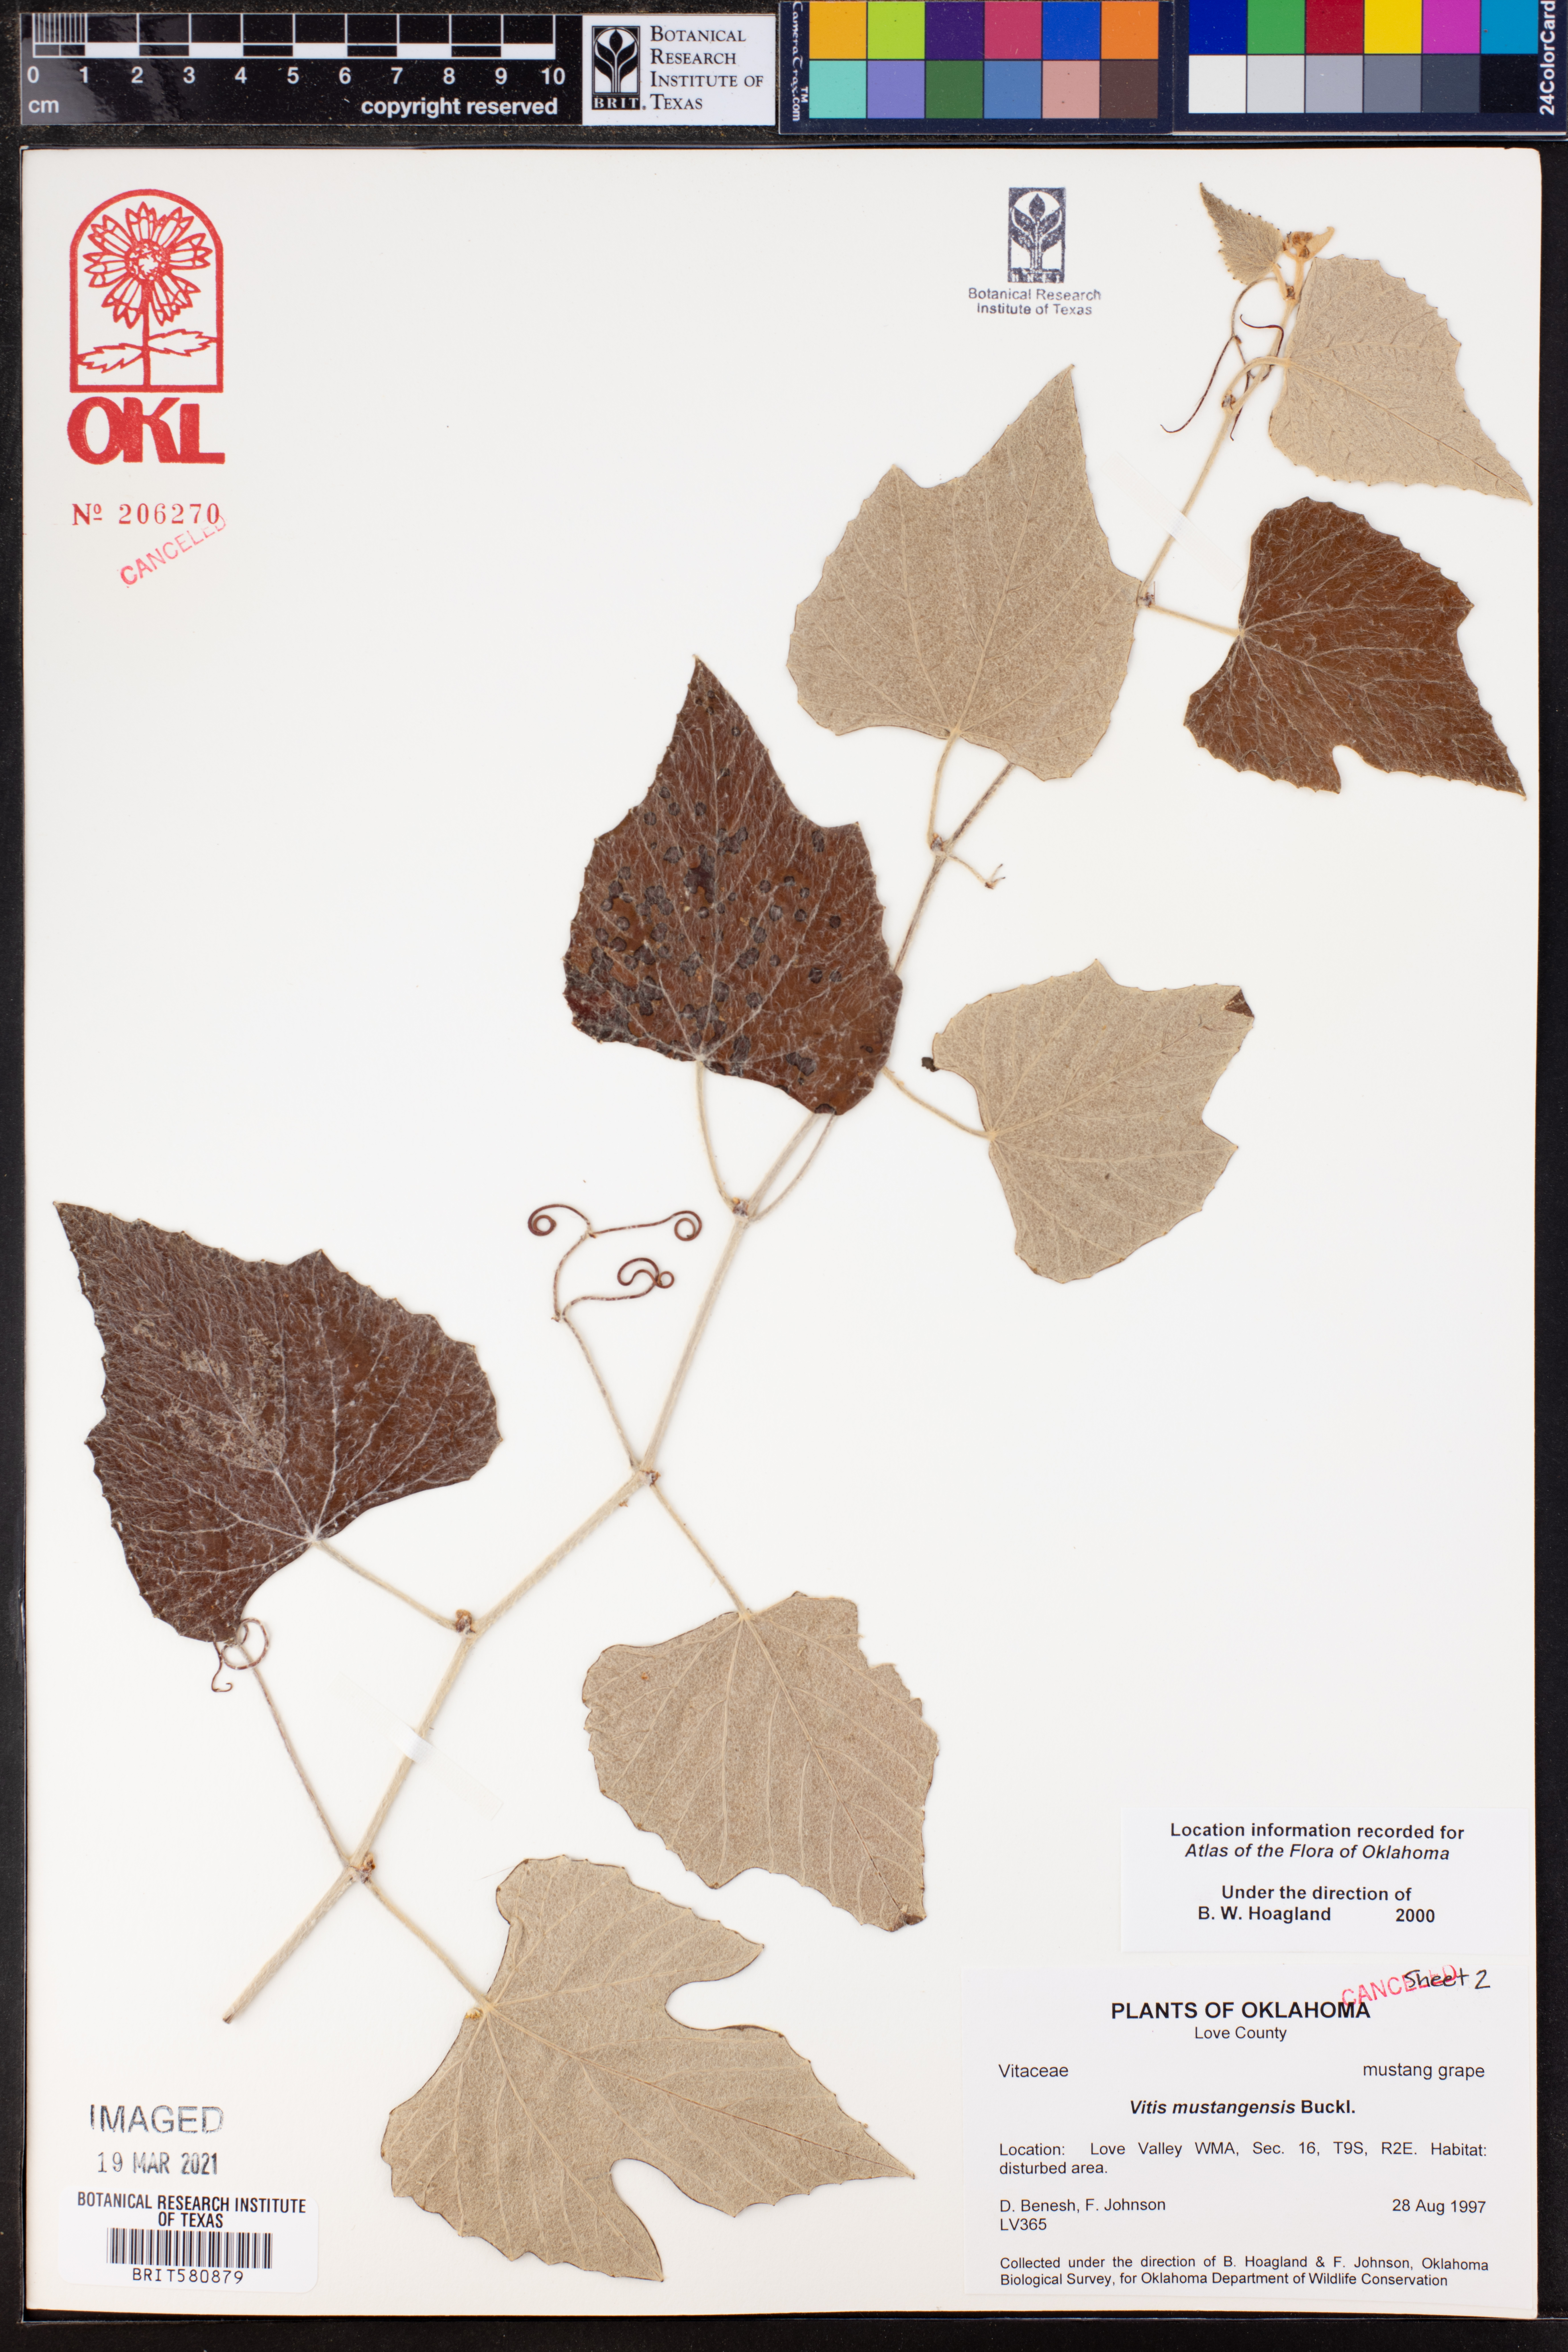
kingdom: Plantae
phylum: Tracheophyta
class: Magnoliopsida
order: Vitales
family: Vitaceae
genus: Vitis
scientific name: Vitis mustangensis
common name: Mustang grape
